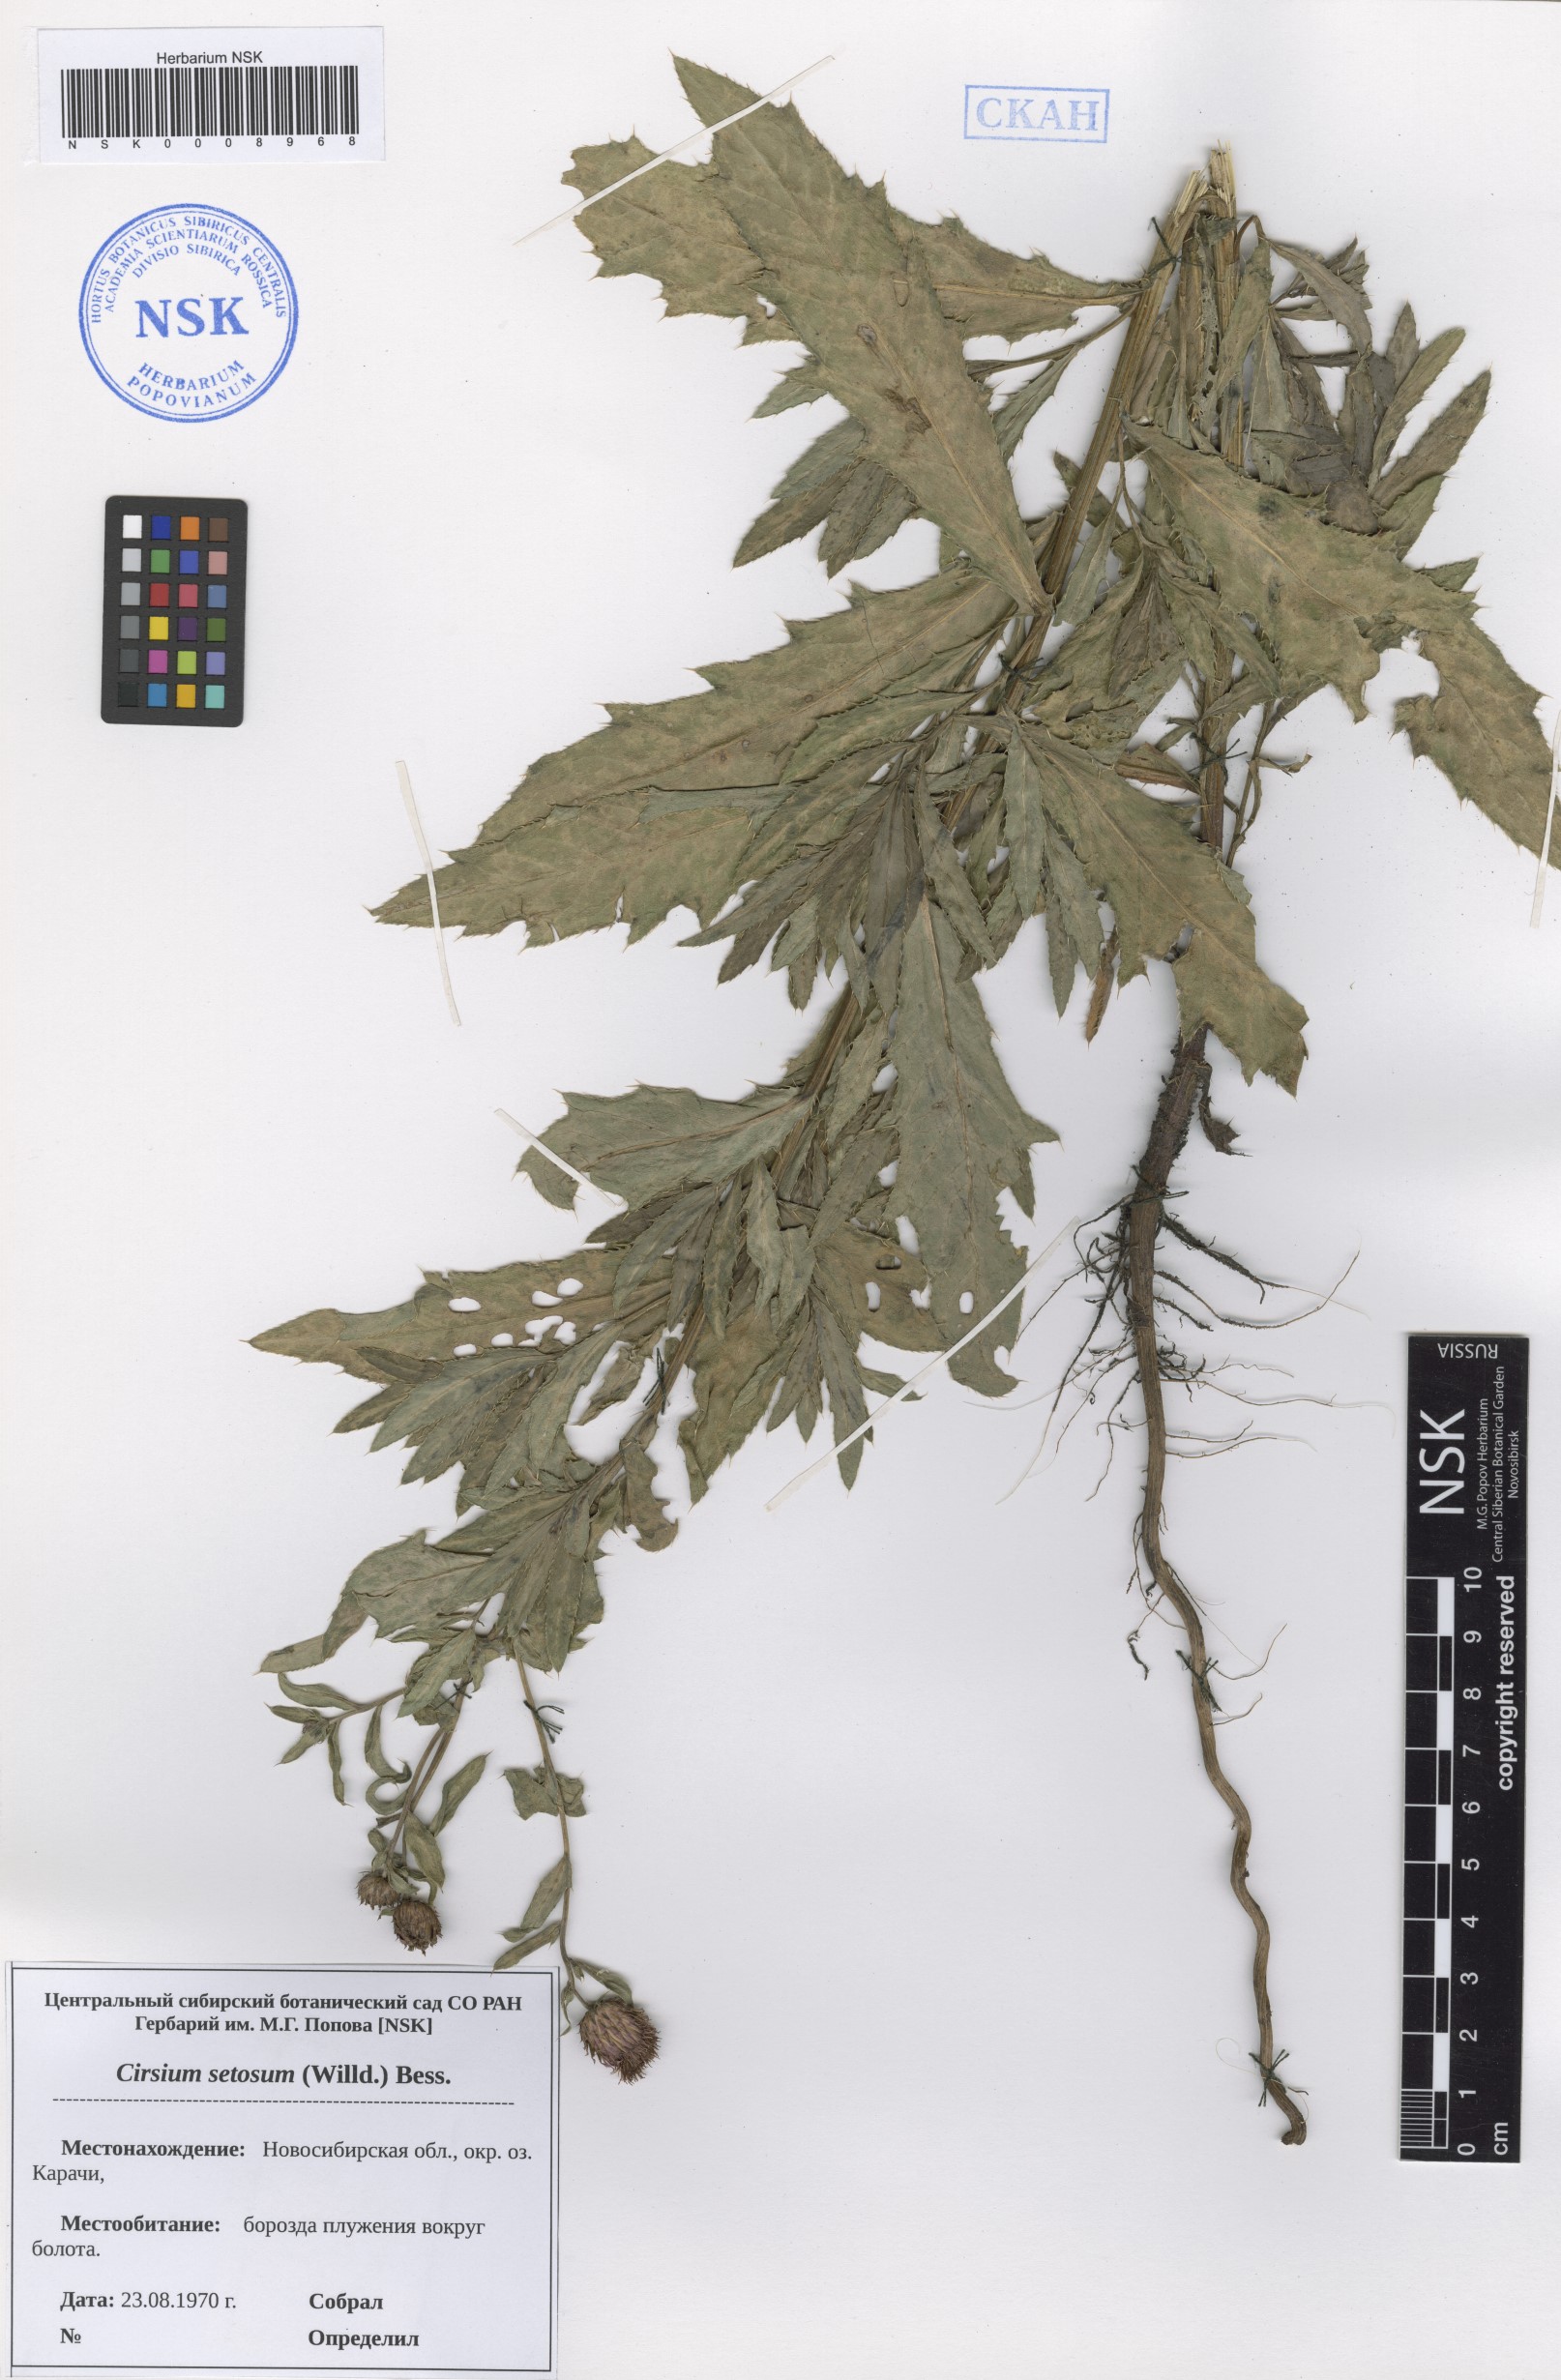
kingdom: Plantae
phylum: Tracheophyta
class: Magnoliopsida
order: Asterales
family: Asteraceae
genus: Cirsium
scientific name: Cirsium arvense
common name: Creeping thistle
